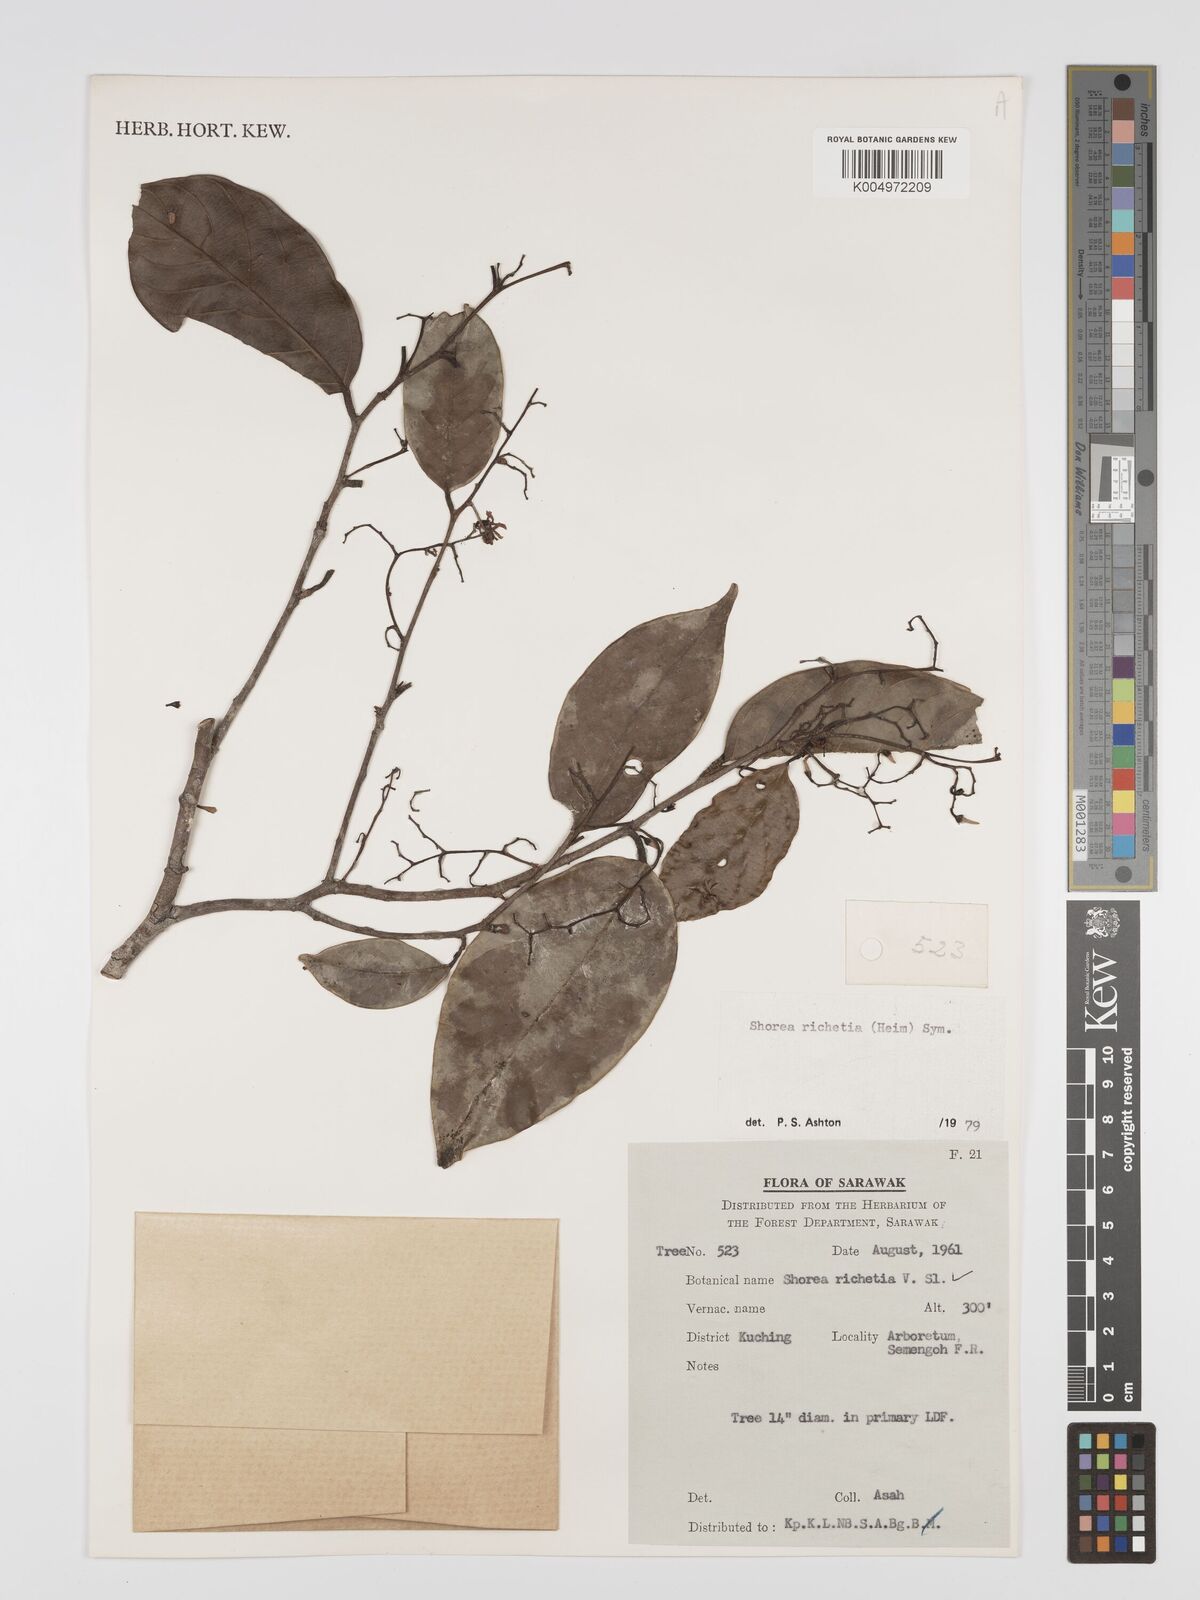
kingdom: Plantae
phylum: Tracheophyta
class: Magnoliopsida
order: Malvales
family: Dipterocarpaceae
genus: Shorea
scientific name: Shorea richetia
